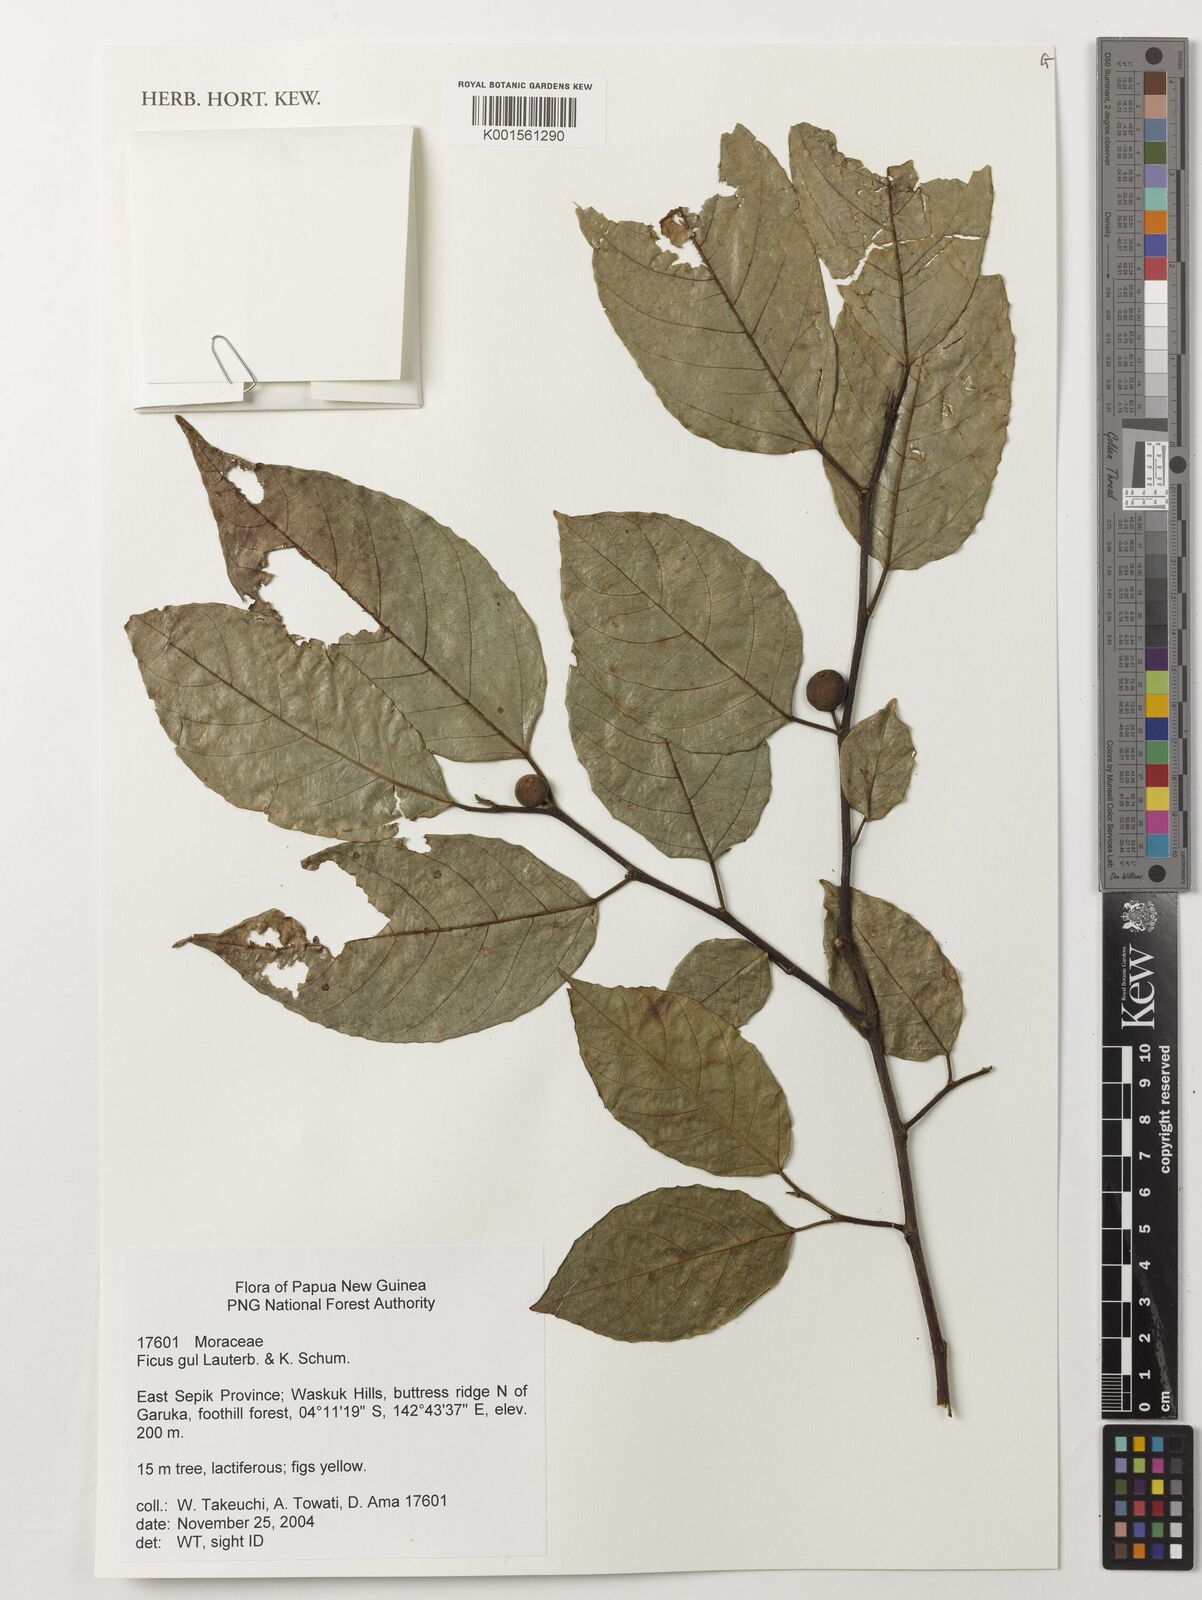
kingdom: Plantae
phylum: Tracheophyta
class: Magnoliopsida
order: Rosales
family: Moraceae
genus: Ficus
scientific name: Ficus gul
